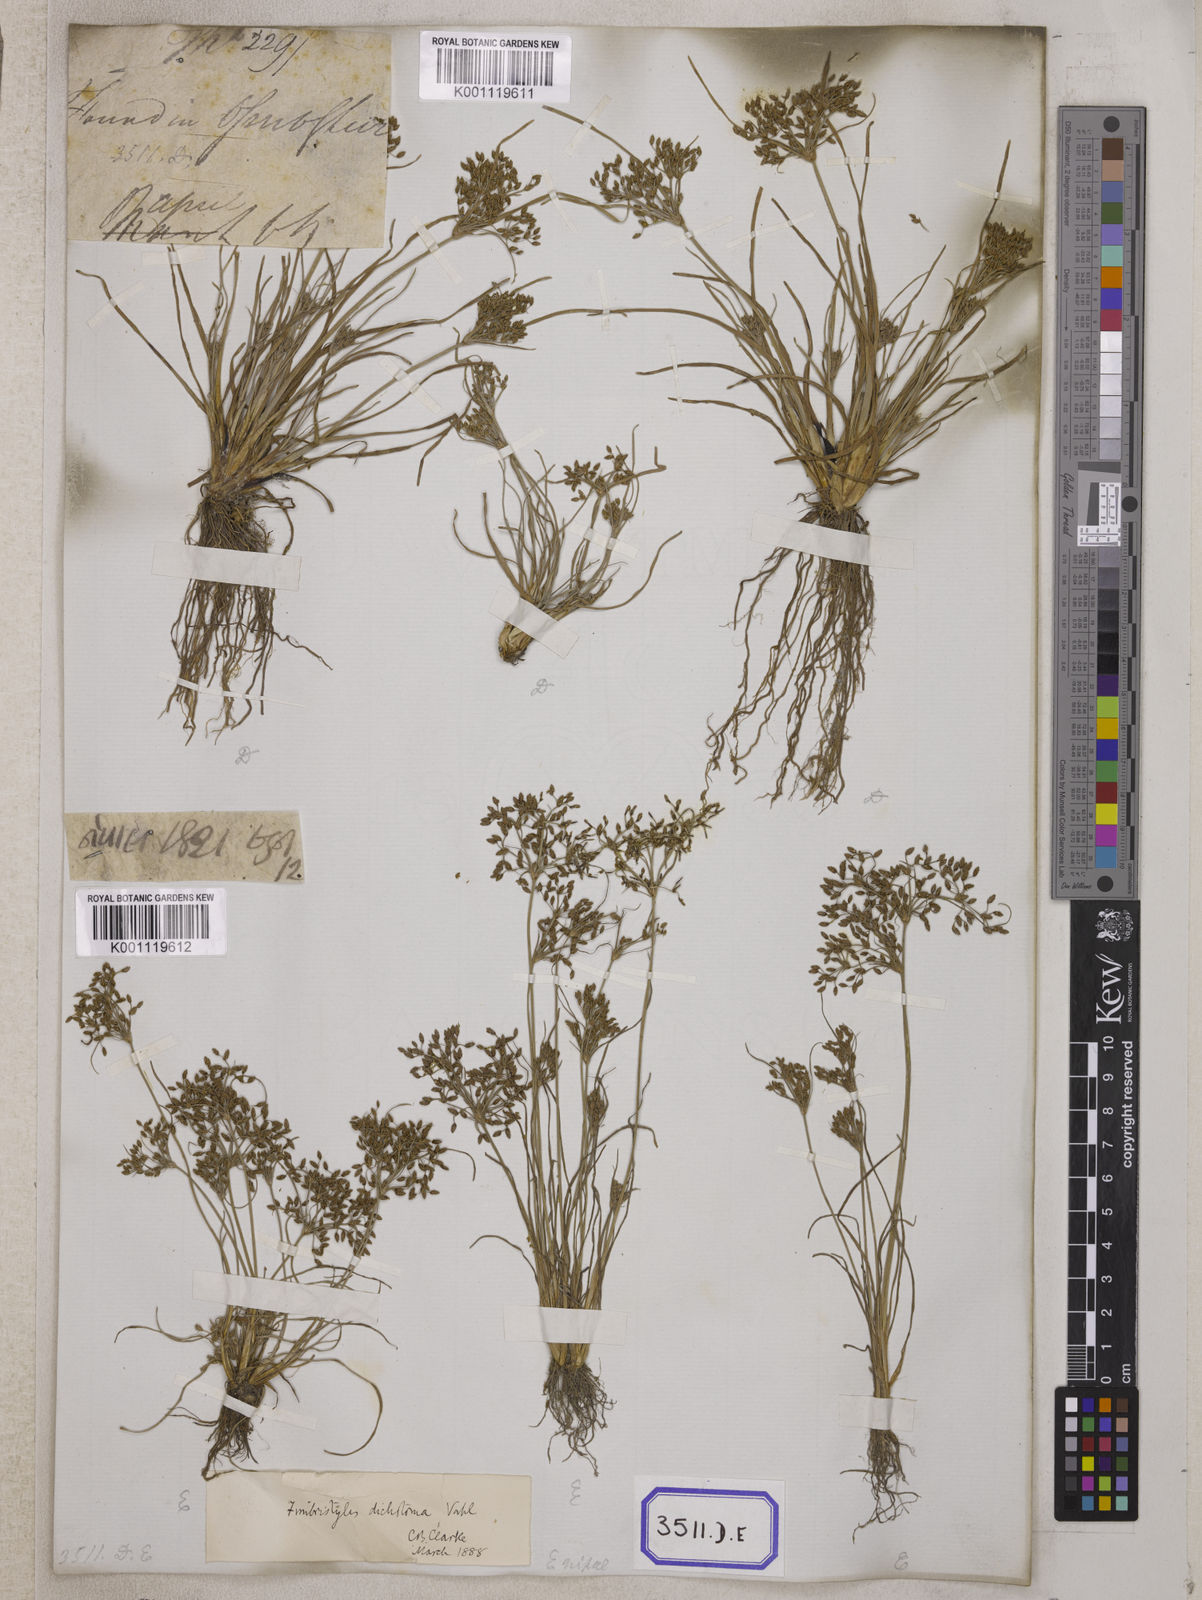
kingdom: Plantae
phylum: Tracheophyta
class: Liliopsida
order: Poales
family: Cyperaceae
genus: Fimbristylis
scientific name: Fimbristylis
